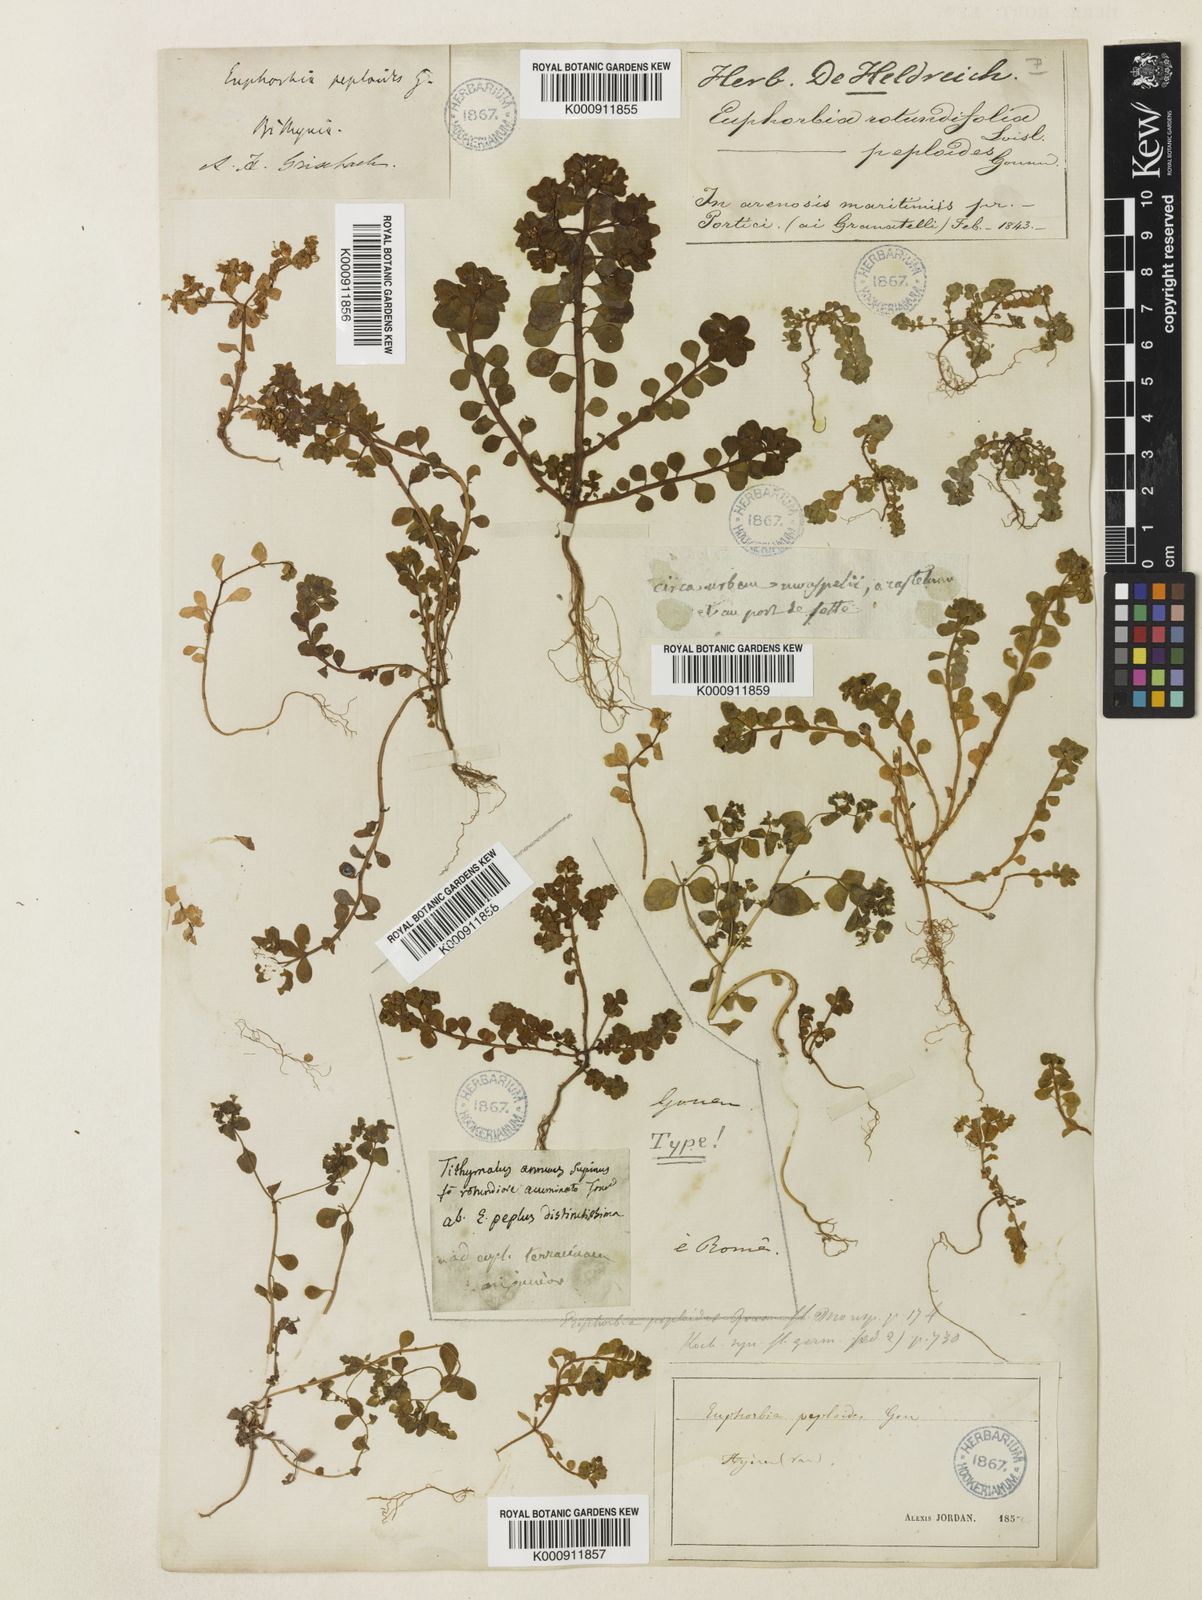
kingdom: Plantae
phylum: Tracheophyta
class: Magnoliopsida
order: Malpighiales
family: Euphorbiaceae
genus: Euphorbia
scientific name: Euphorbia peplus
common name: Petty spurge
